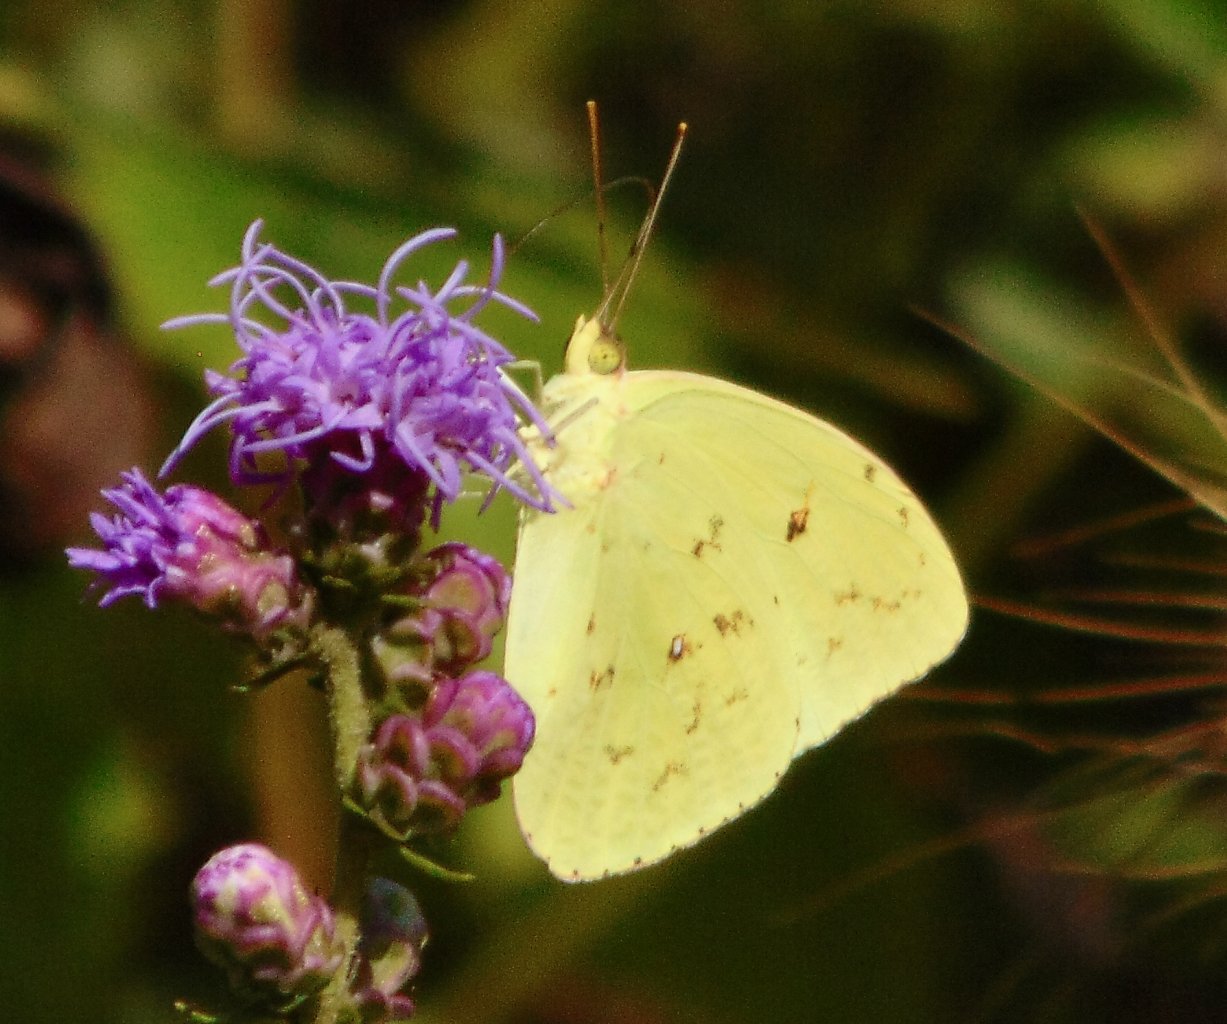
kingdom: Animalia
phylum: Arthropoda
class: Insecta
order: Lepidoptera
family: Pieridae
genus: Phoebis
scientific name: Phoebis sennae
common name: Cloudless Sulphur
